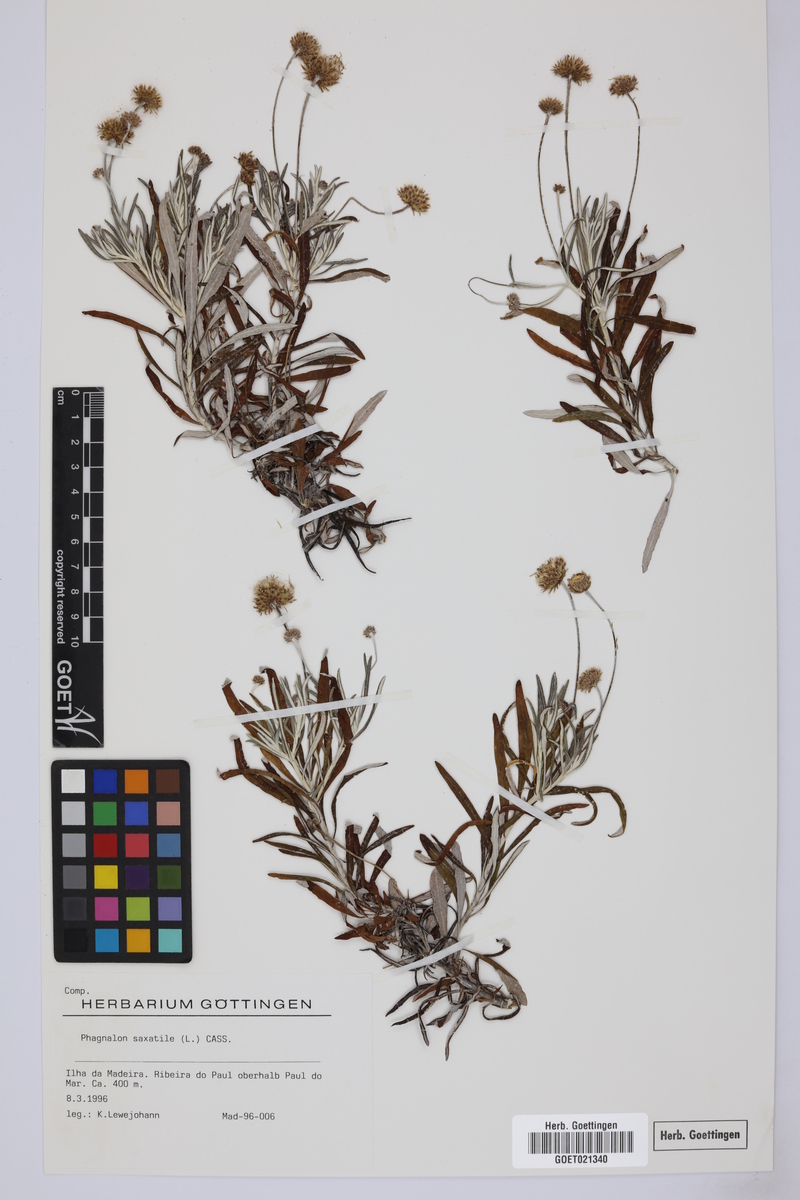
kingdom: Plantae
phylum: Tracheophyta
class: Magnoliopsida
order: Asterales
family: Asteraceae
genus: Phagnalon
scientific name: Phagnalon saxatile
